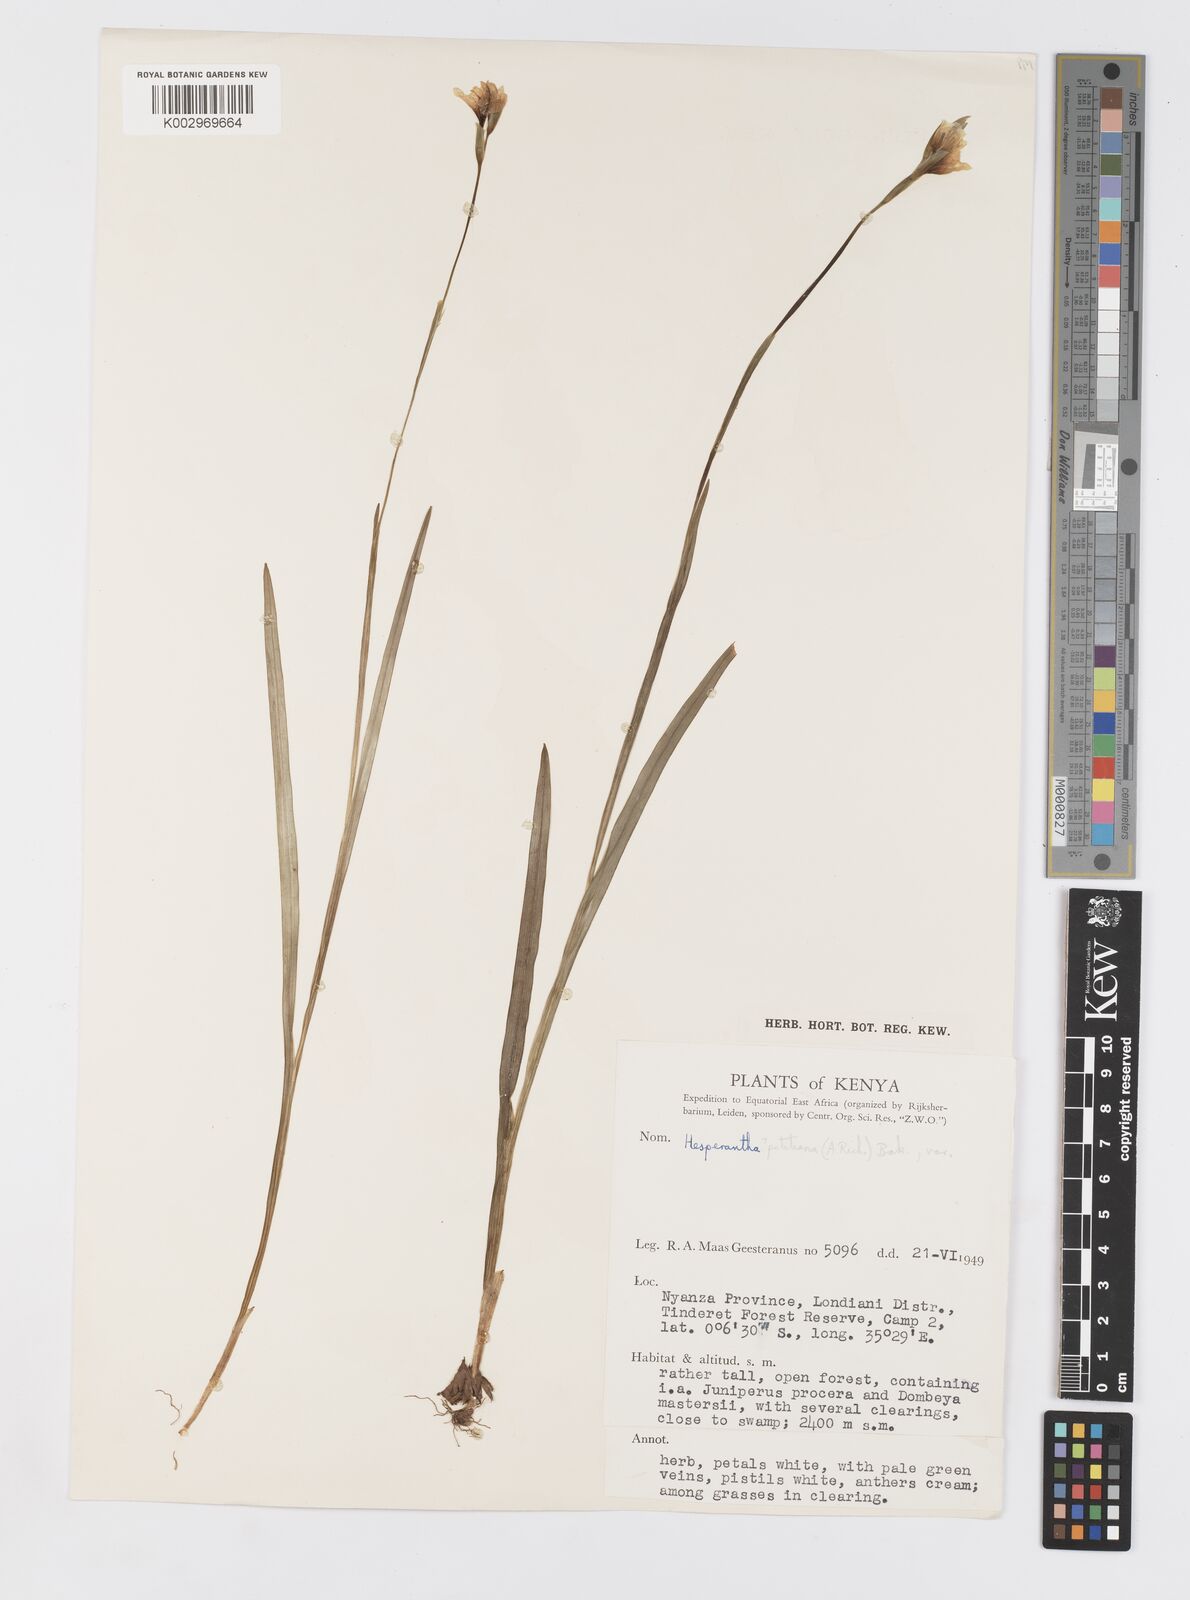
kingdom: Plantae
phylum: Tracheophyta
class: Liliopsida
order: Asparagales
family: Iridaceae
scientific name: Iridaceae
